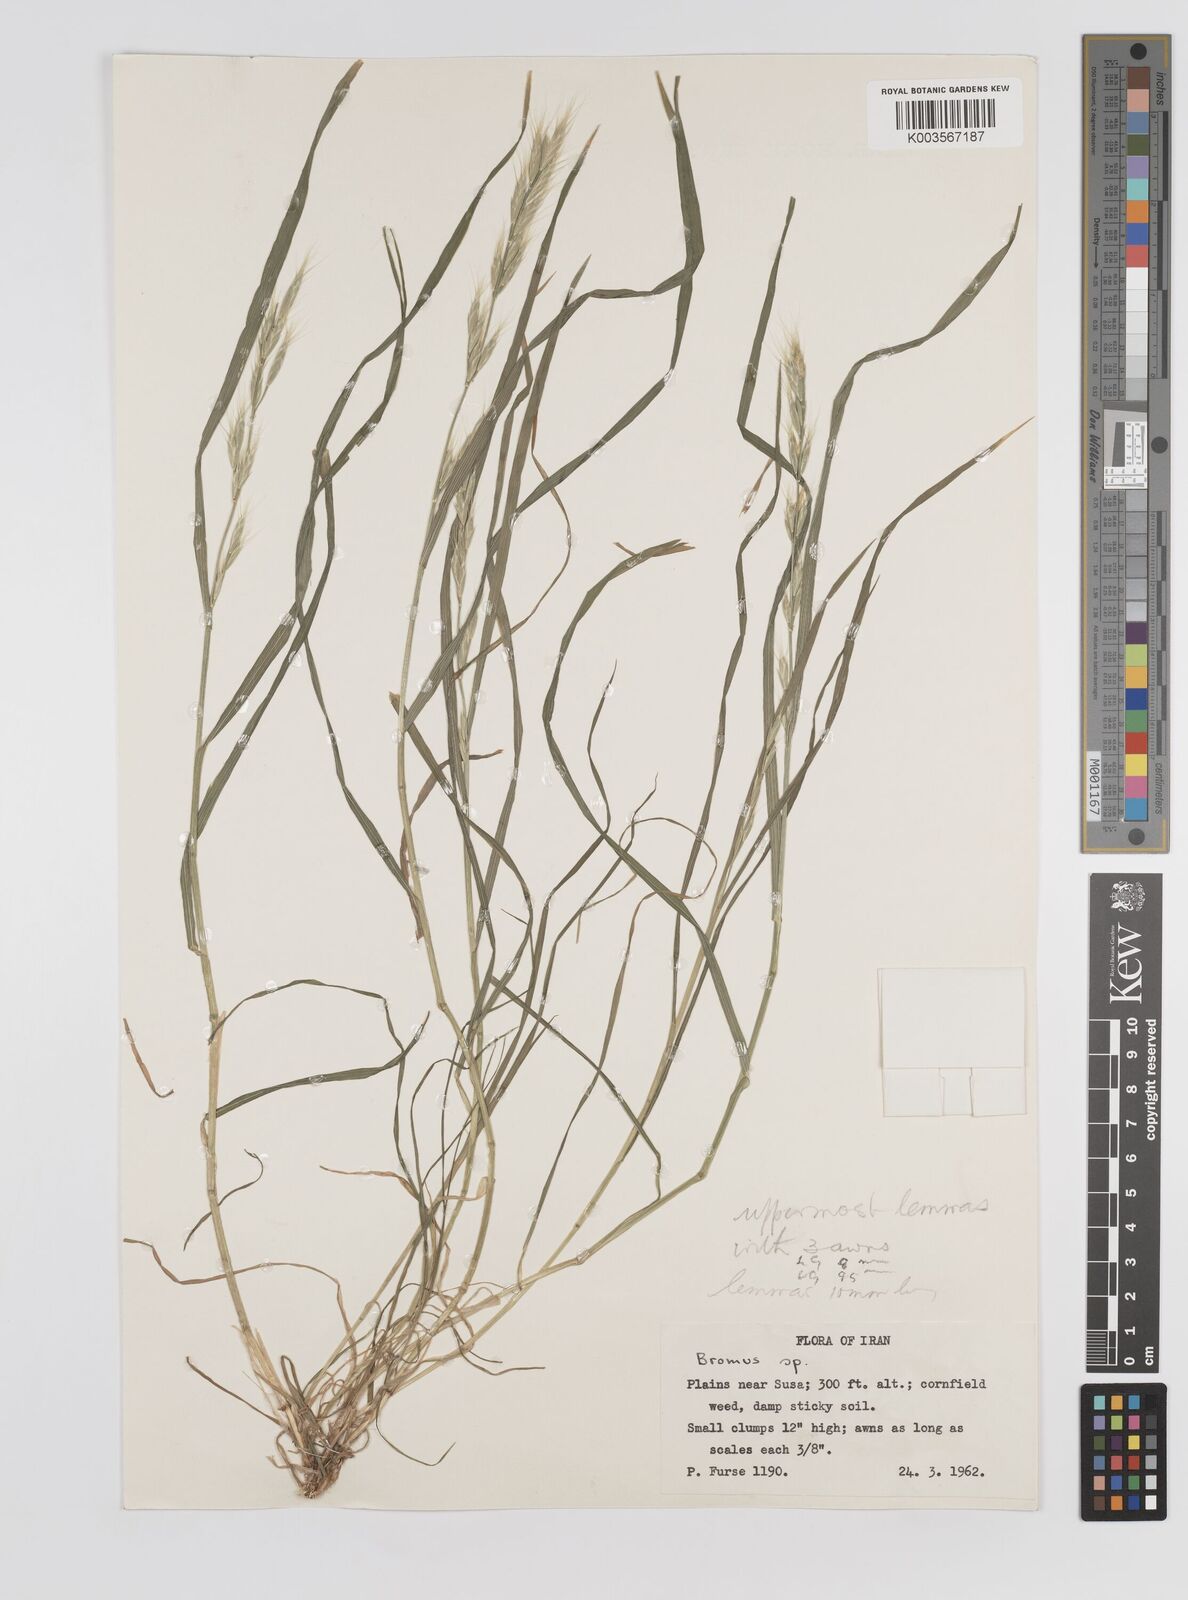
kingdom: Plantae
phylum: Tracheophyta
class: Liliopsida
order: Poales
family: Poaceae
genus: Bromus
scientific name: Bromus danthoniae
